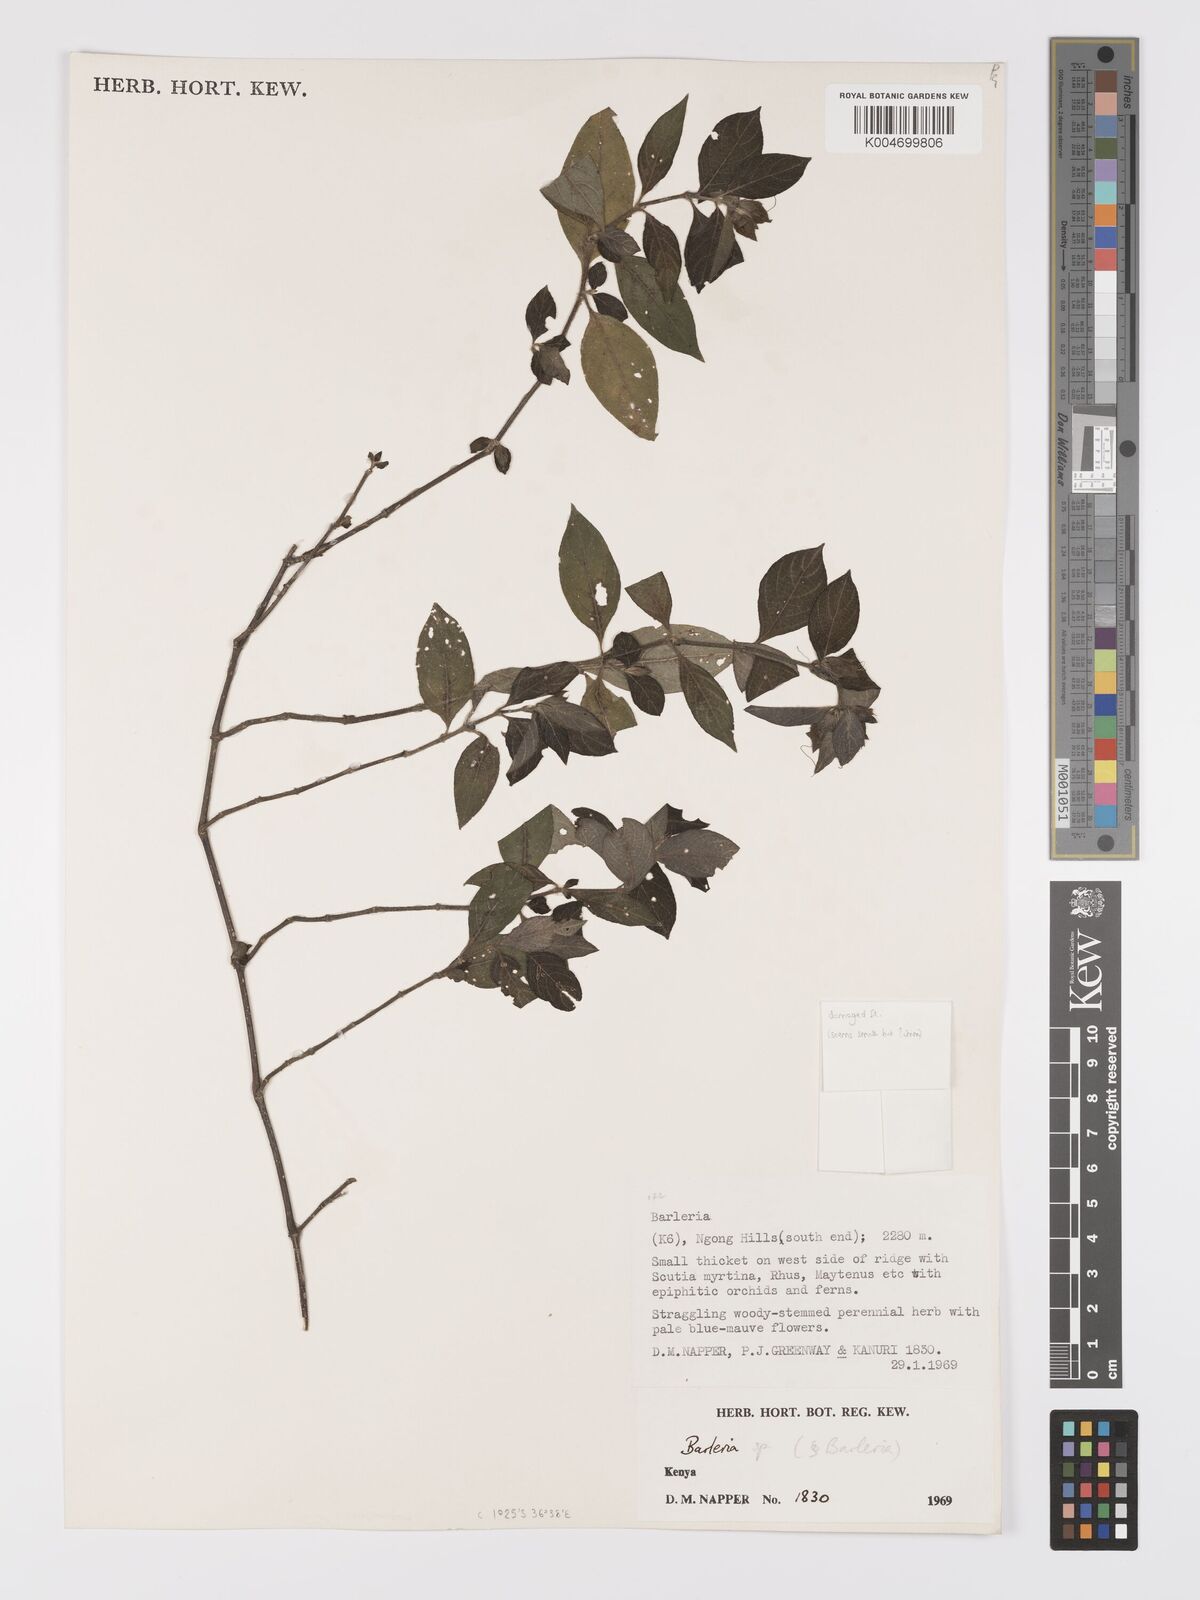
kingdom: Plantae
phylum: Tracheophyta
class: Magnoliopsida
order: Lamiales
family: Acanthaceae
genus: Barleria
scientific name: Barleria ventricosa
